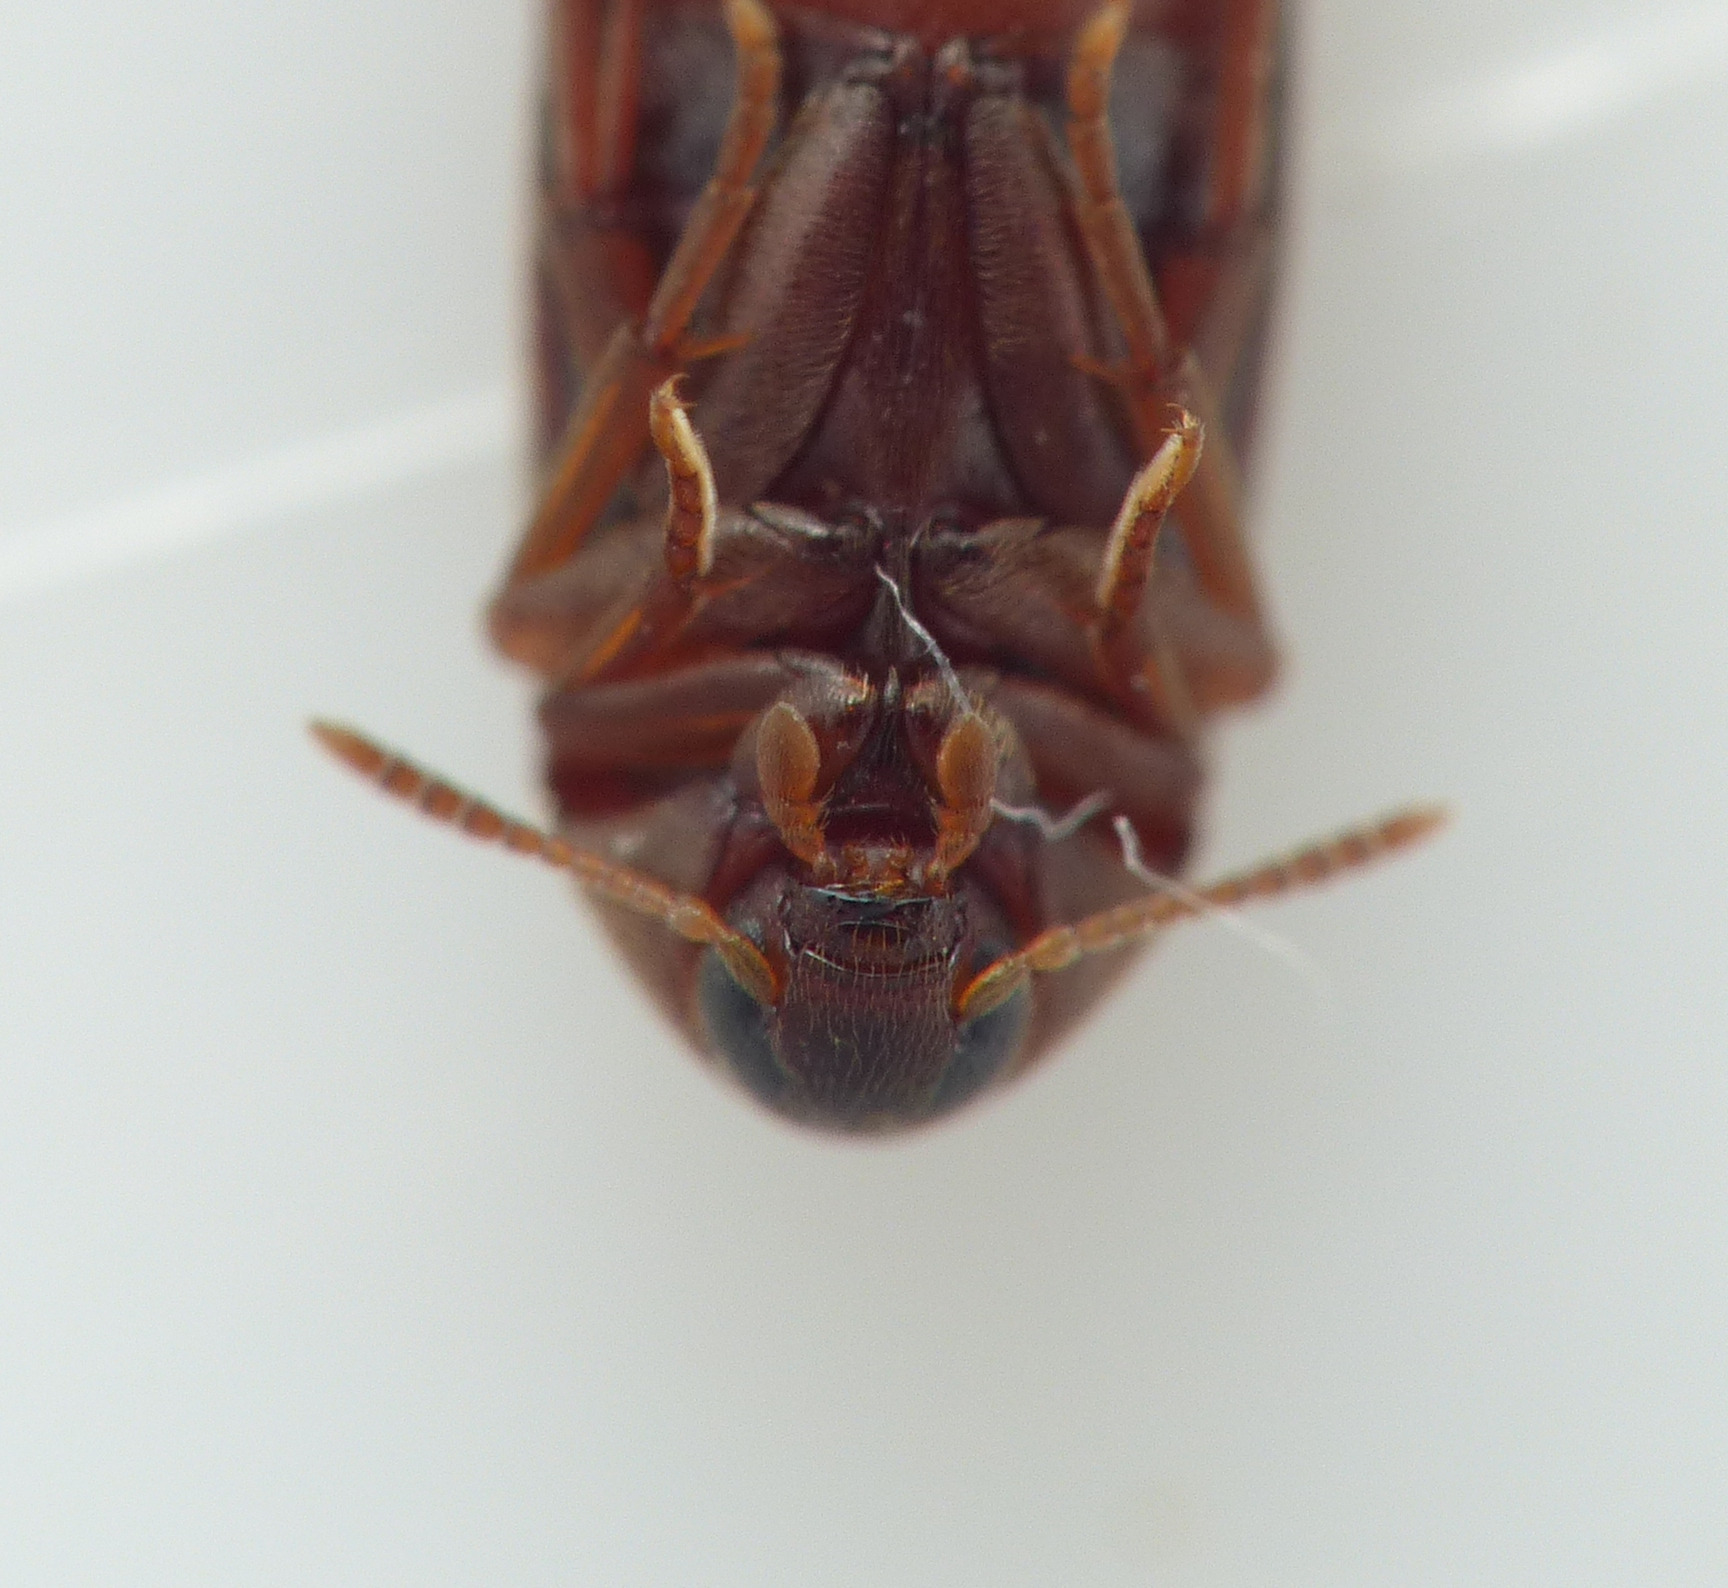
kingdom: Animalia
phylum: Arthropoda
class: Insecta
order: Coleoptera
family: Melandryidae
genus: Orchesia
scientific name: Orchesia minor
